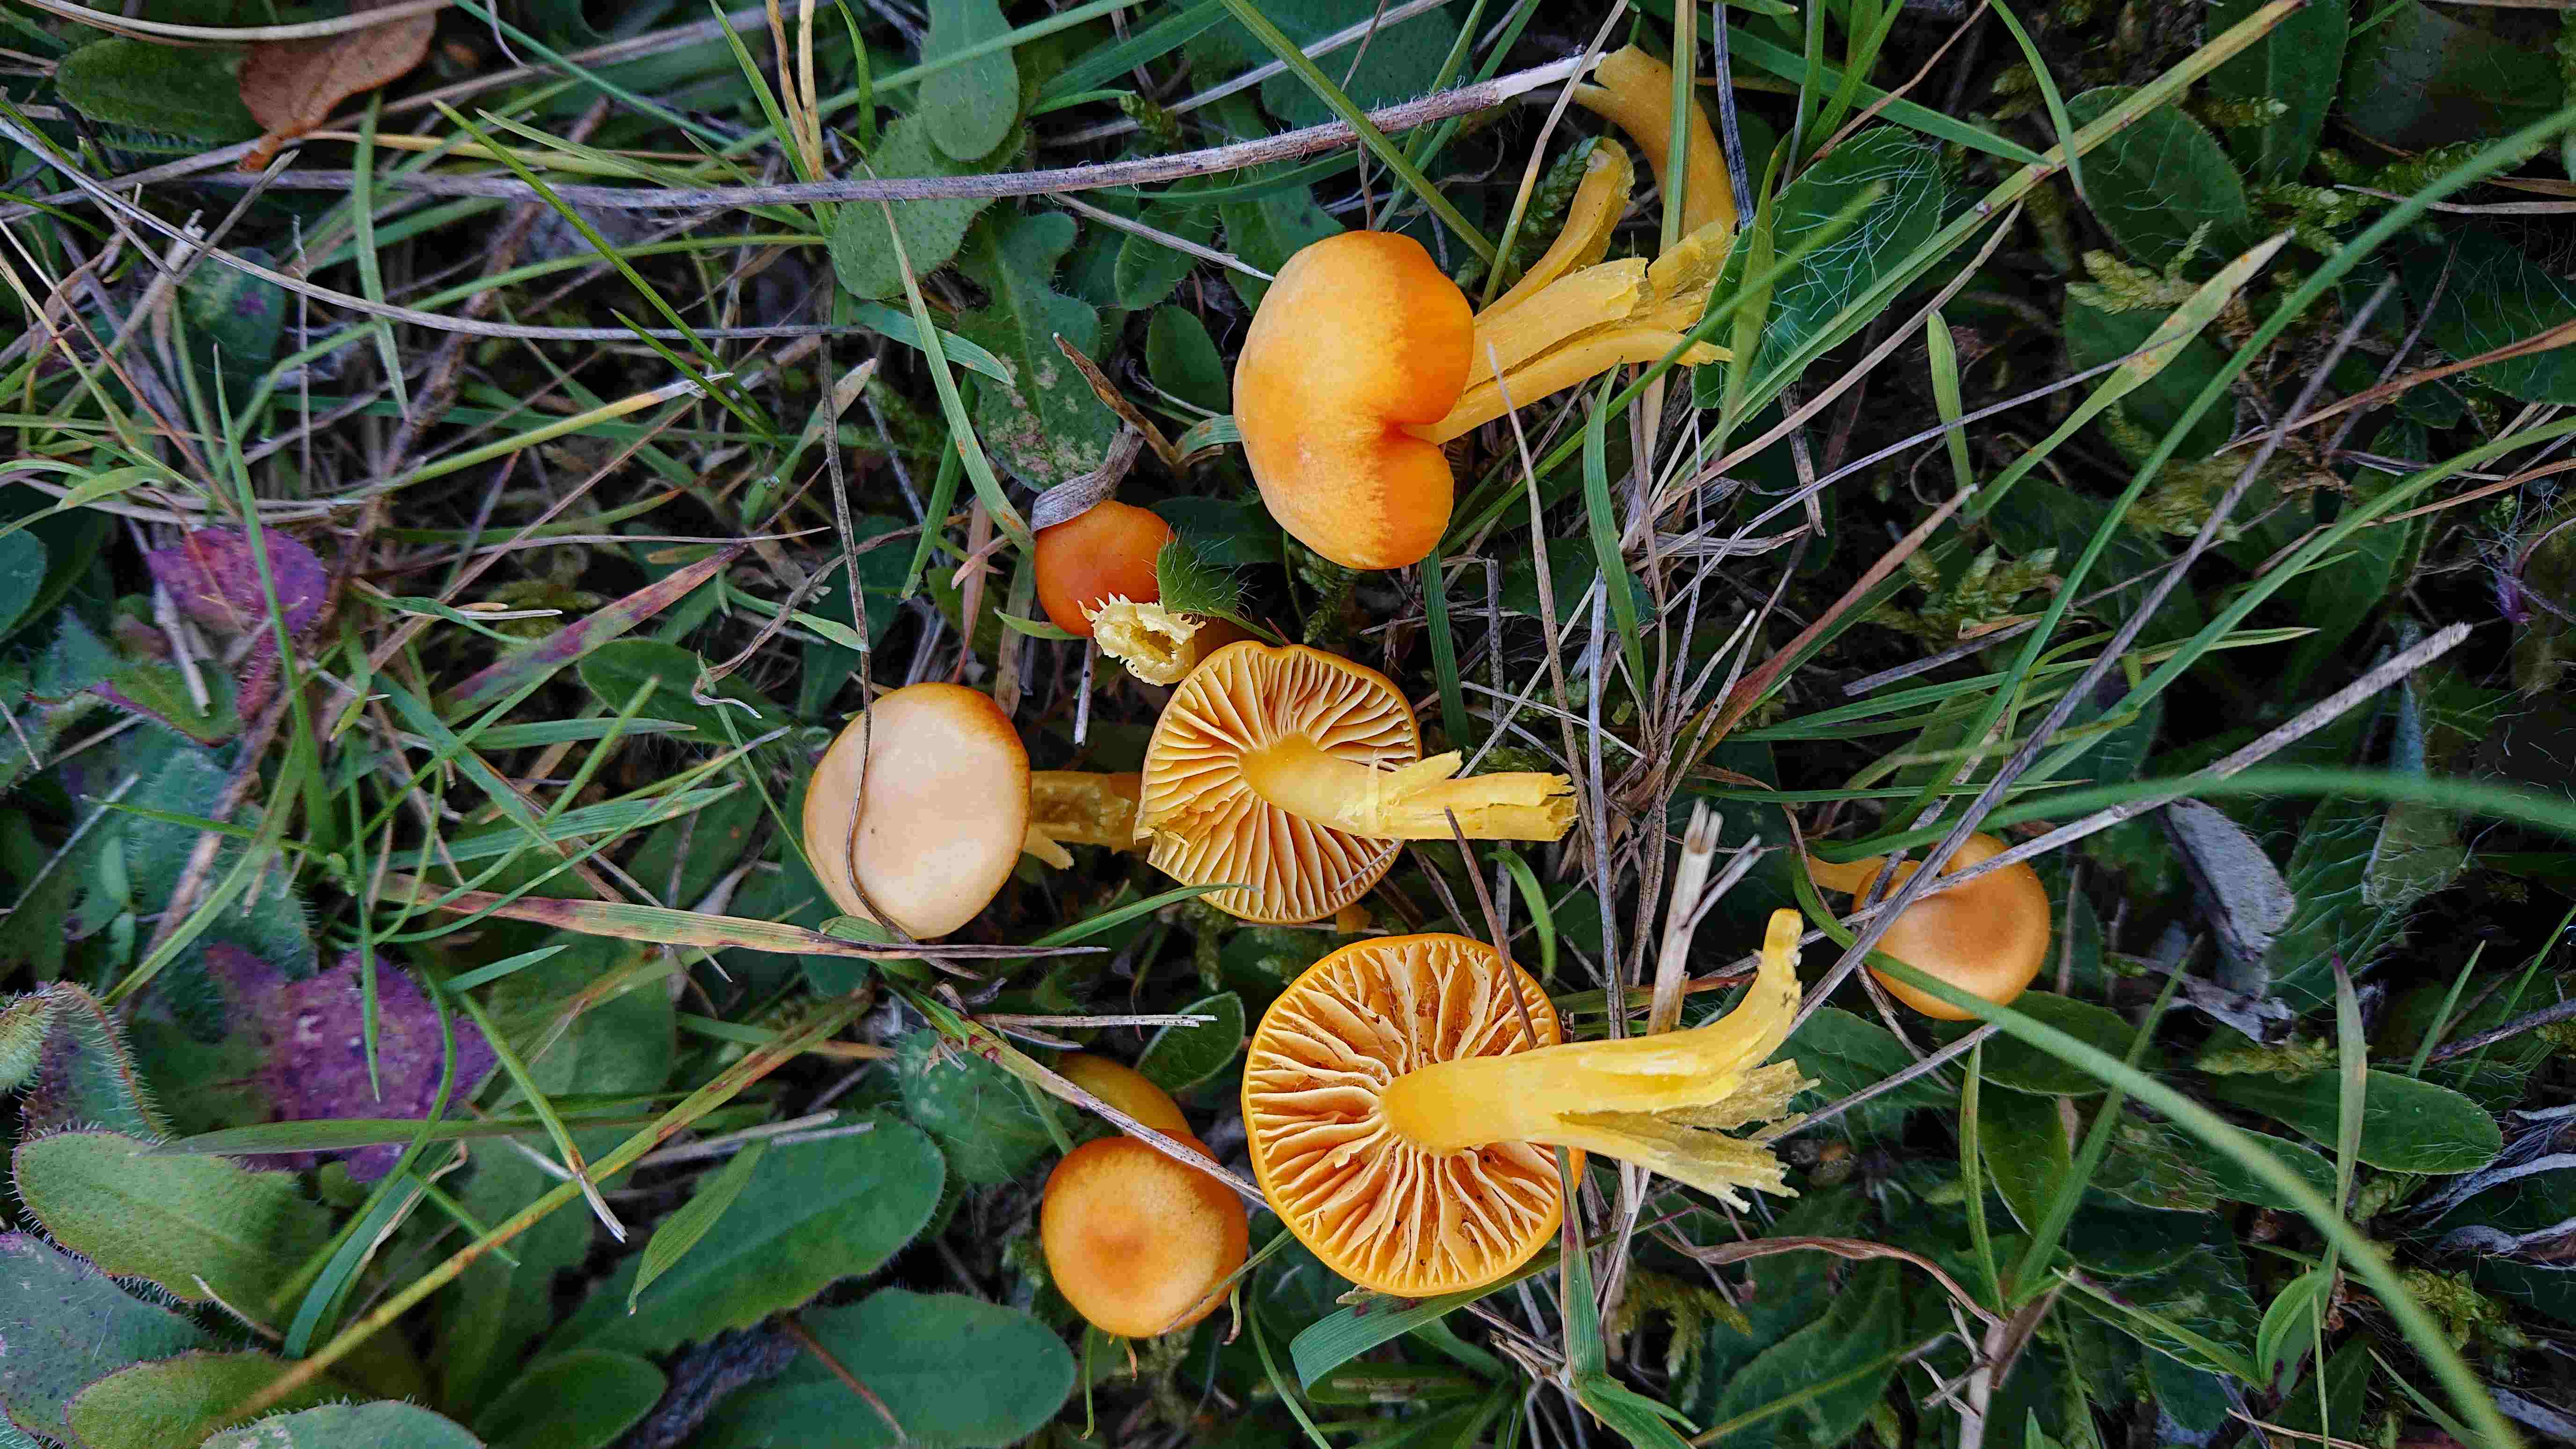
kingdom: Fungi
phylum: Basidiomycota
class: Agaricomycetes
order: Agaricales
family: Hygrophoraceae
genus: Hygrocybe
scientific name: Hygrocybe ceracea
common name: voksgul vokshat
